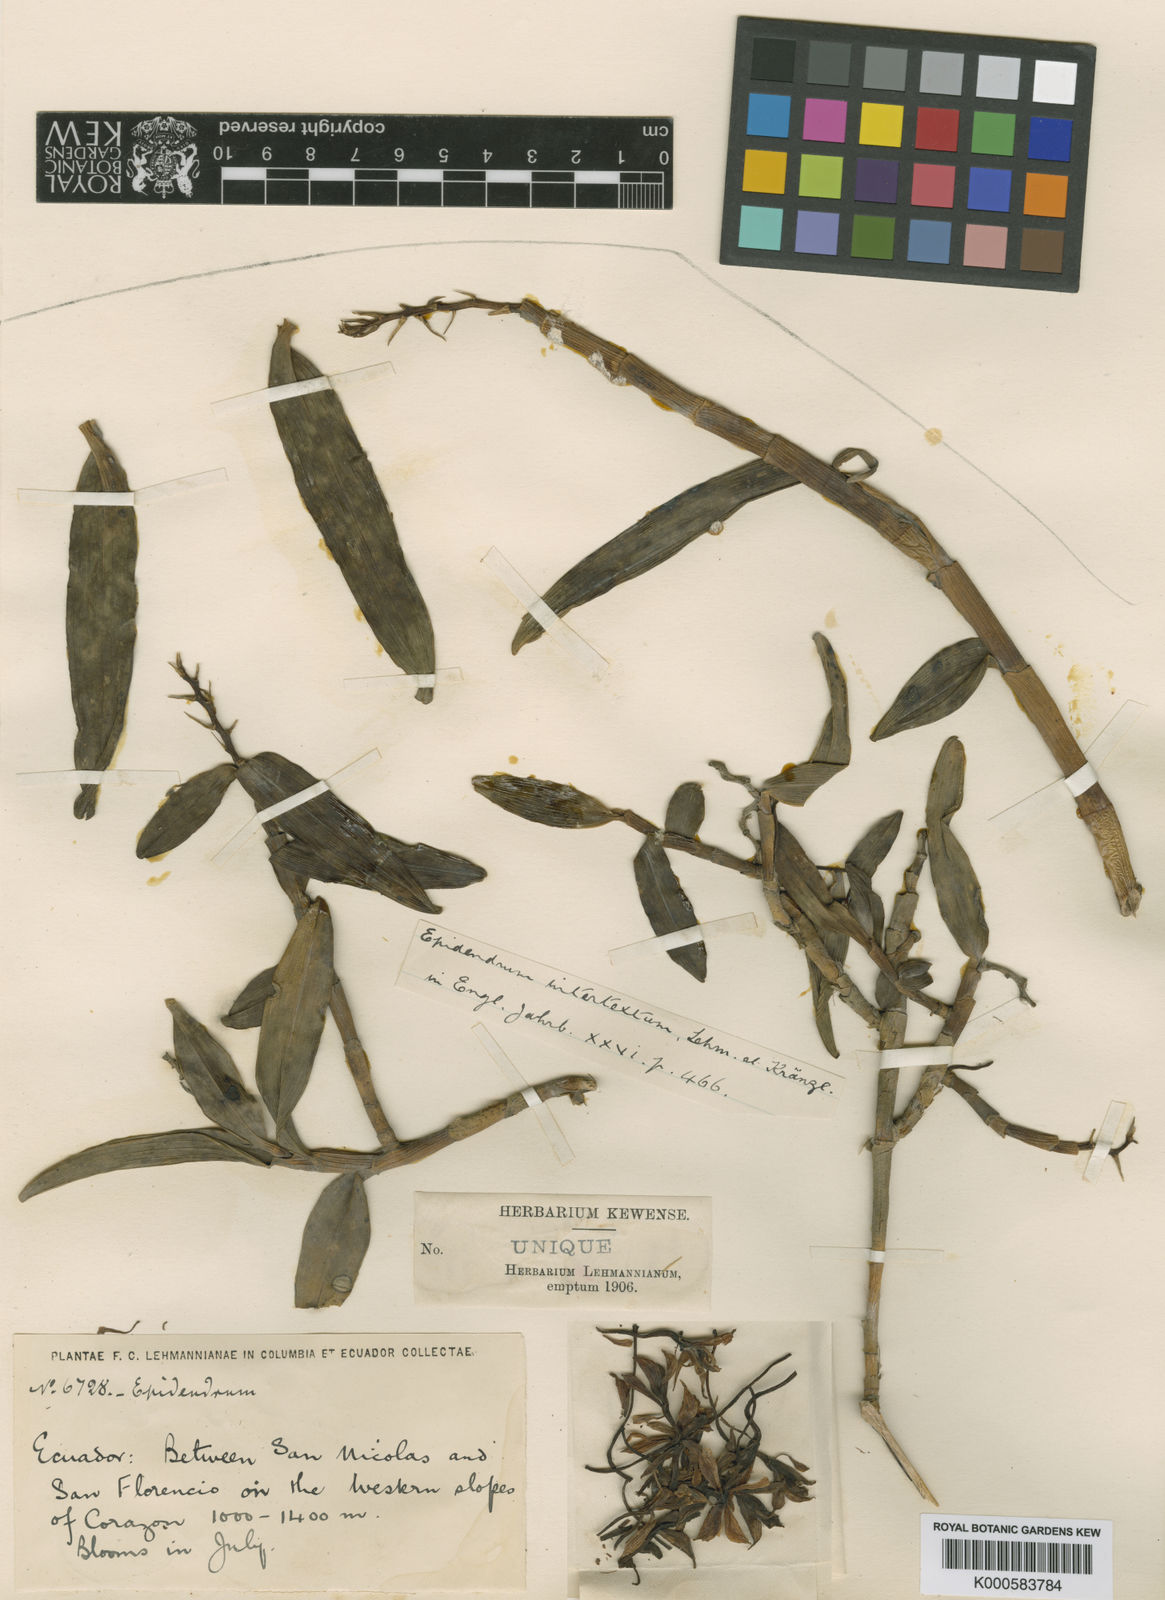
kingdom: Plantae
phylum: Tracheophyta
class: Liliopsida
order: Asparagales
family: Orchidaceae
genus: Epidendrum
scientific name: Epidendrum intertextum
